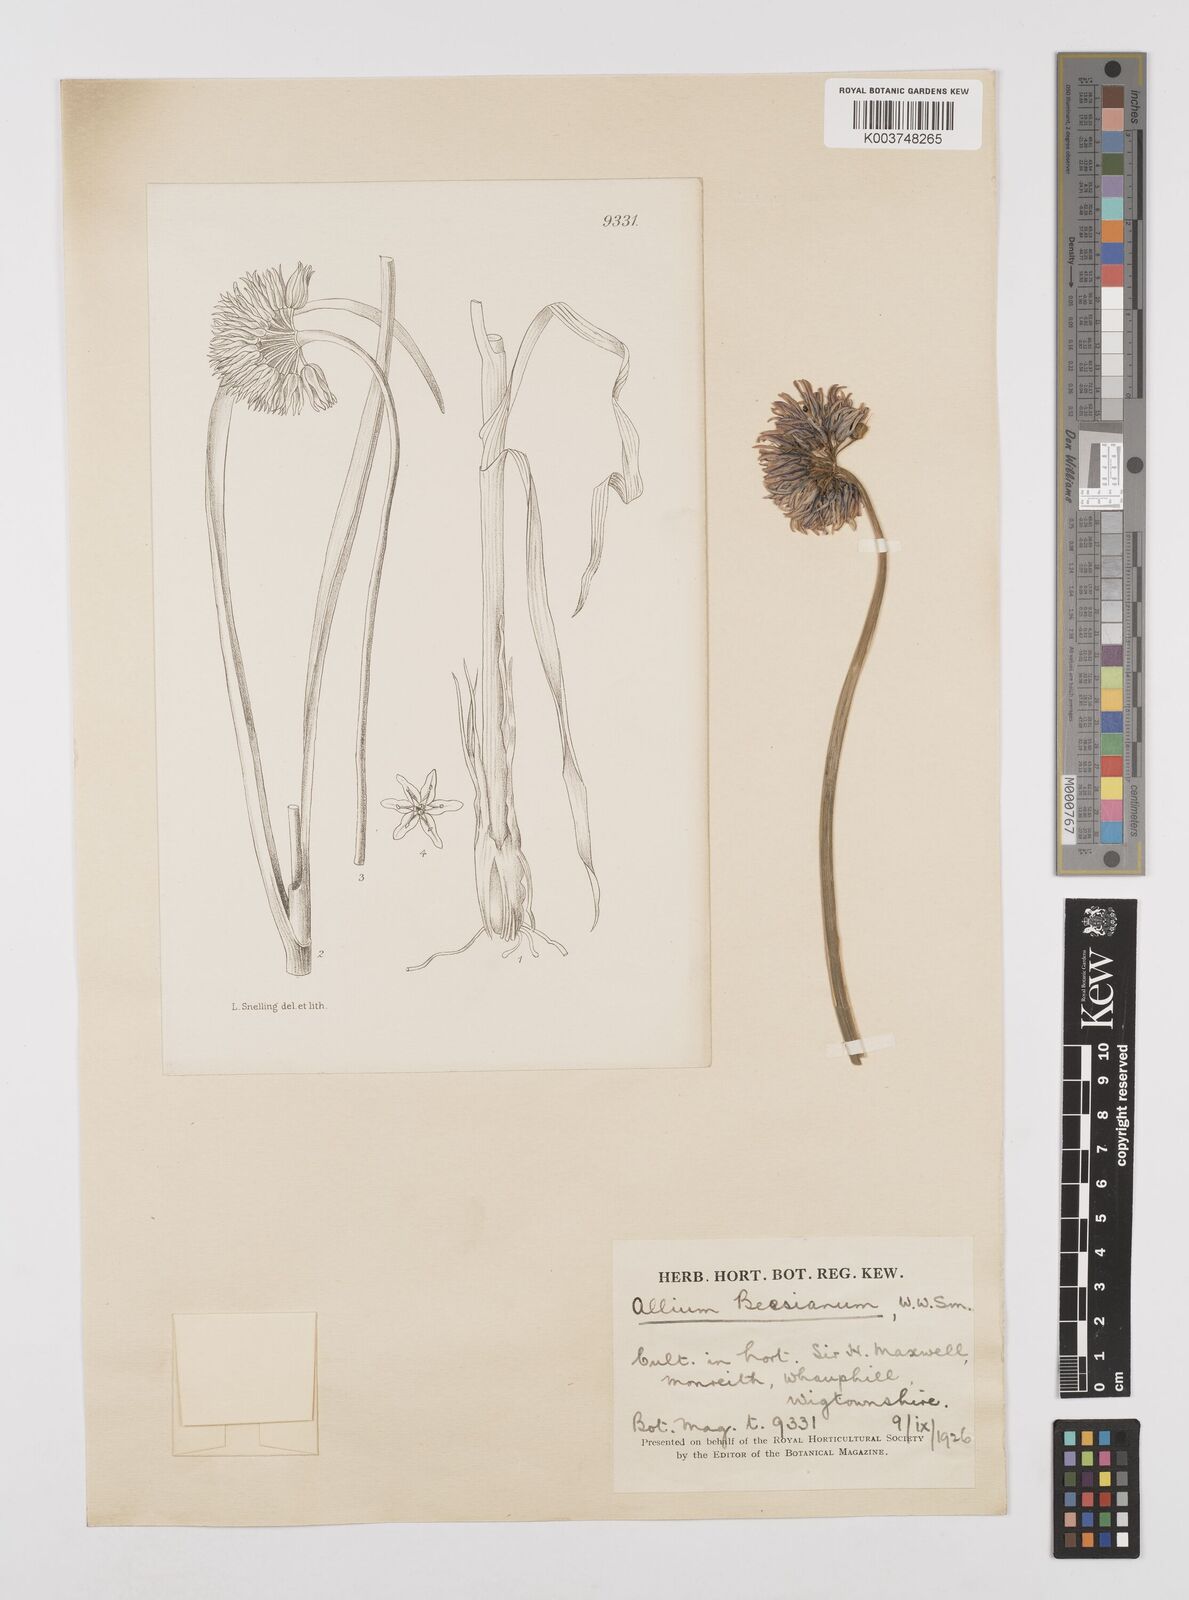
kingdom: Plantae
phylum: Tracheophyta
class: Liliopsida
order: Asparagales
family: Amaryllidaceae
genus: Allium
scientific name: Allium beesianum
